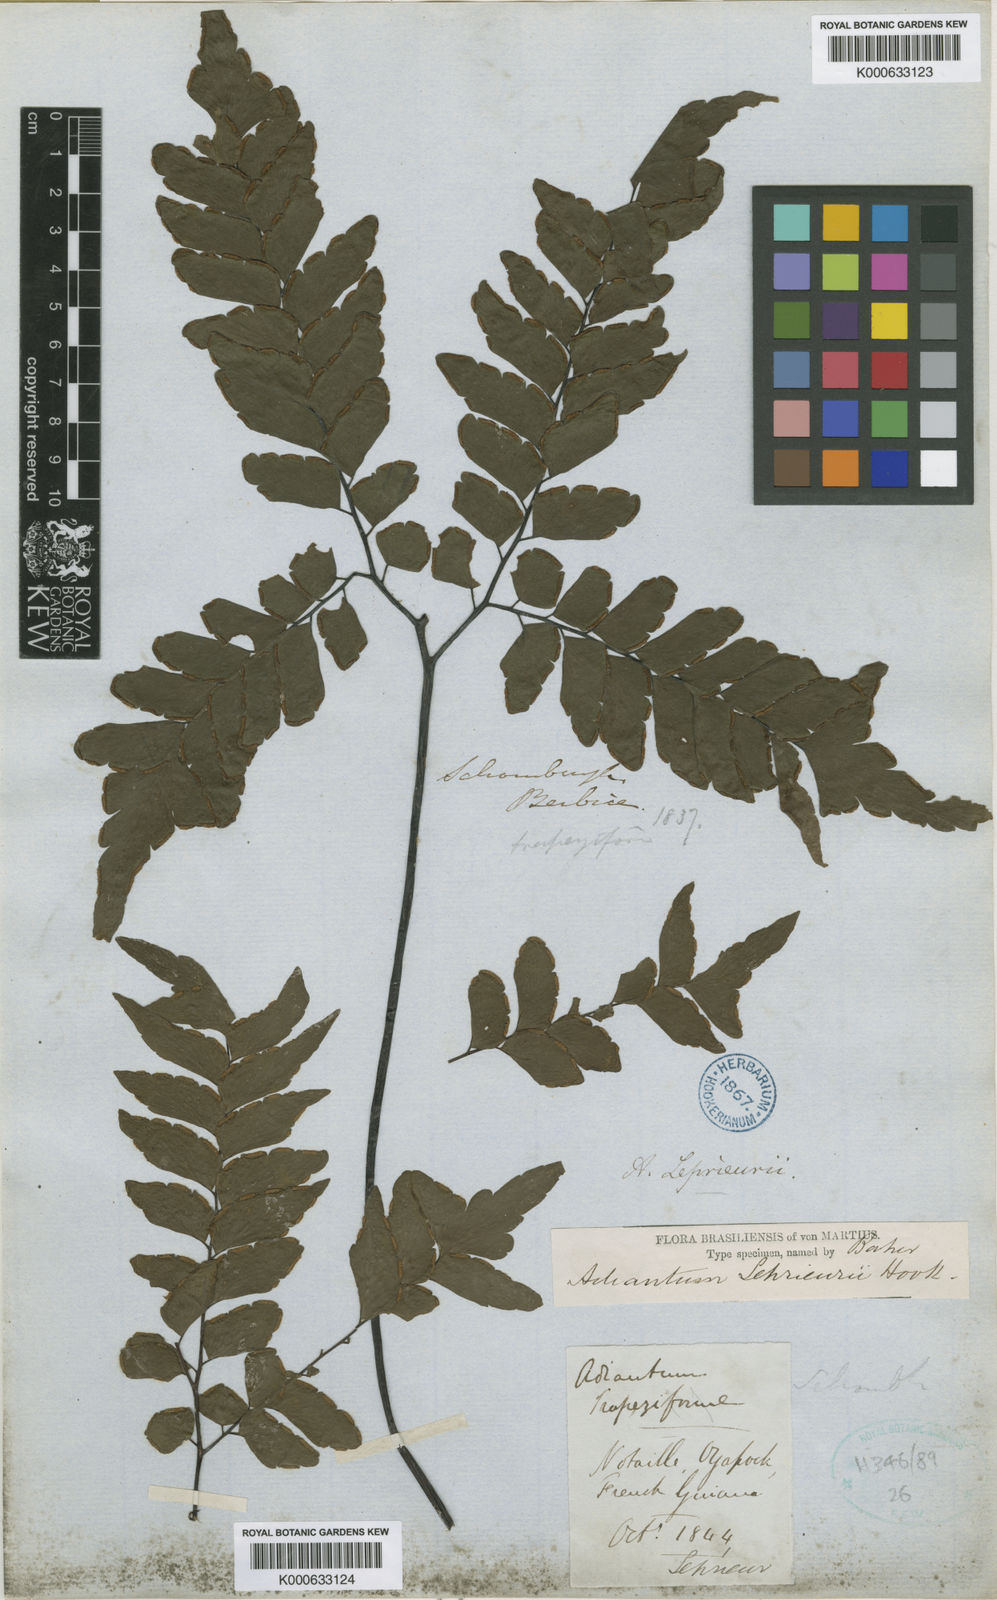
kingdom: Plantae
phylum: Tracheophyta
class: Polypodiopsida
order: Polypodiales
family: Pteridaceae
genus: Adiantum
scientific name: Adiantum leprieurii
